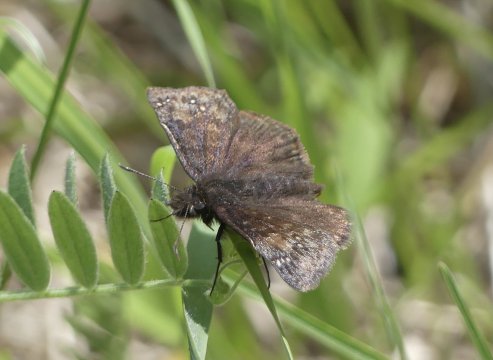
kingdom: Animalia
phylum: Arthropoda
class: Insecta
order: Lepidoptera
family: Hesperiidae
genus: Gesta
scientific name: Gesta
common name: Wild Indigo Duskywing
